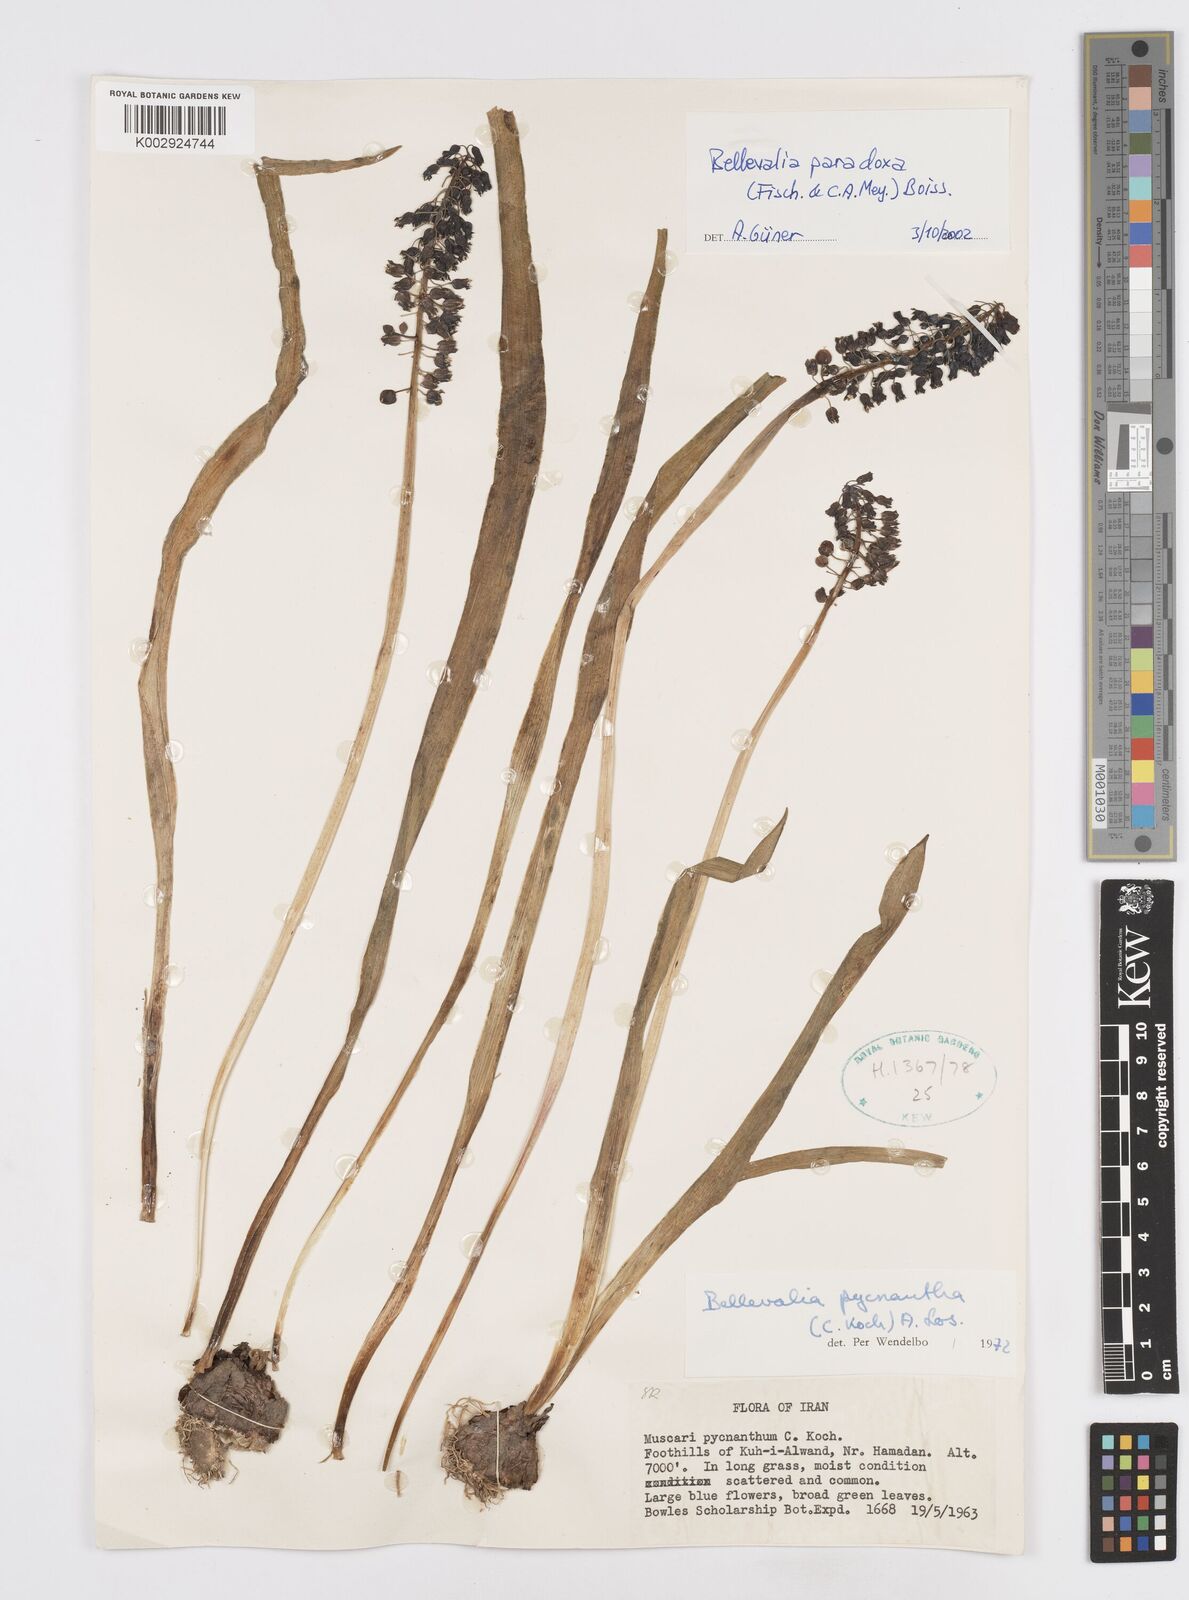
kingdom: Plantae
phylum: Tracheophyta
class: Liliopsida
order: Asparagales
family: Asparagaceae
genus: Bellevalia
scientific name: Bellevalia paradoxa
